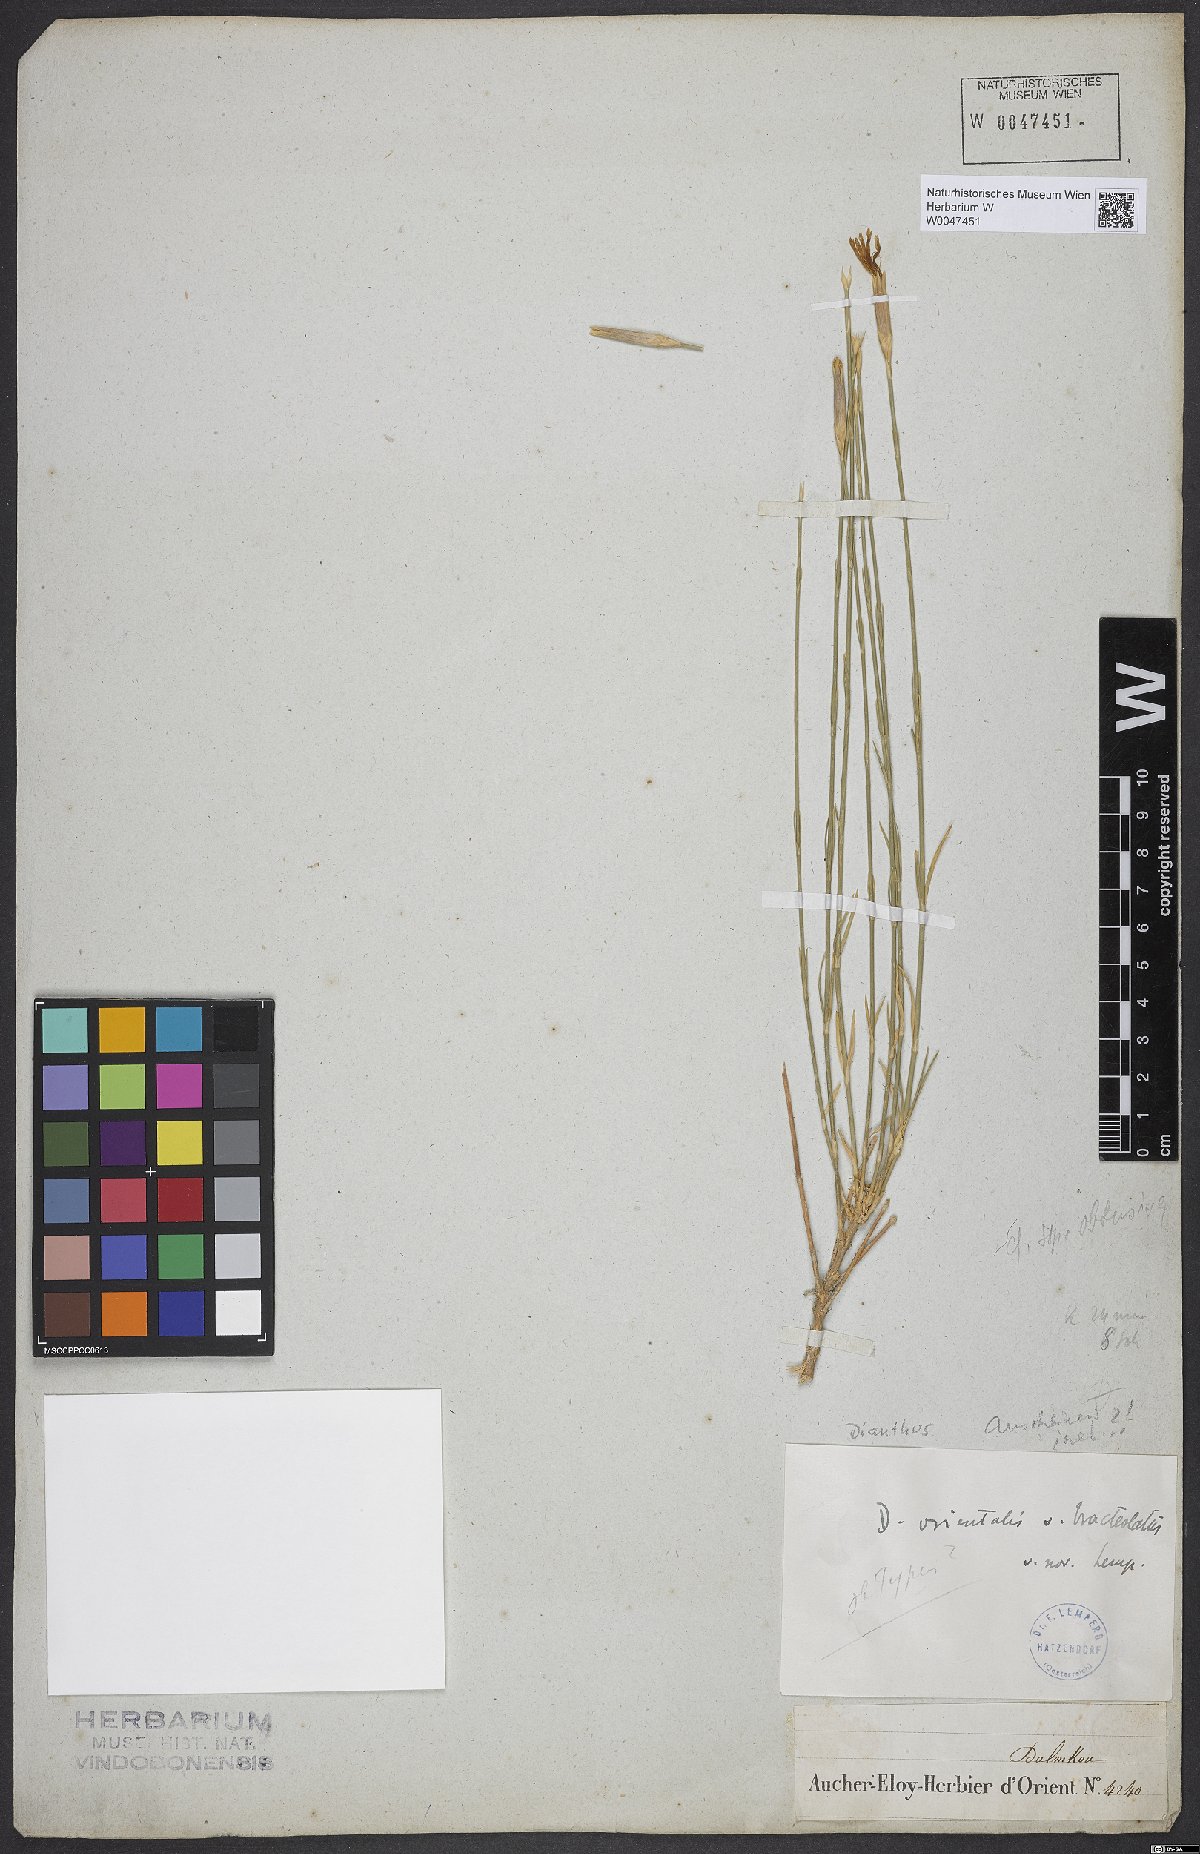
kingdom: Plantae
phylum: Tracheophyta
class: Magnoliopsida
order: Caryophyllales
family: Caryophyllaceae
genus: Dianthus
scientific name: Dianthus orientalis
